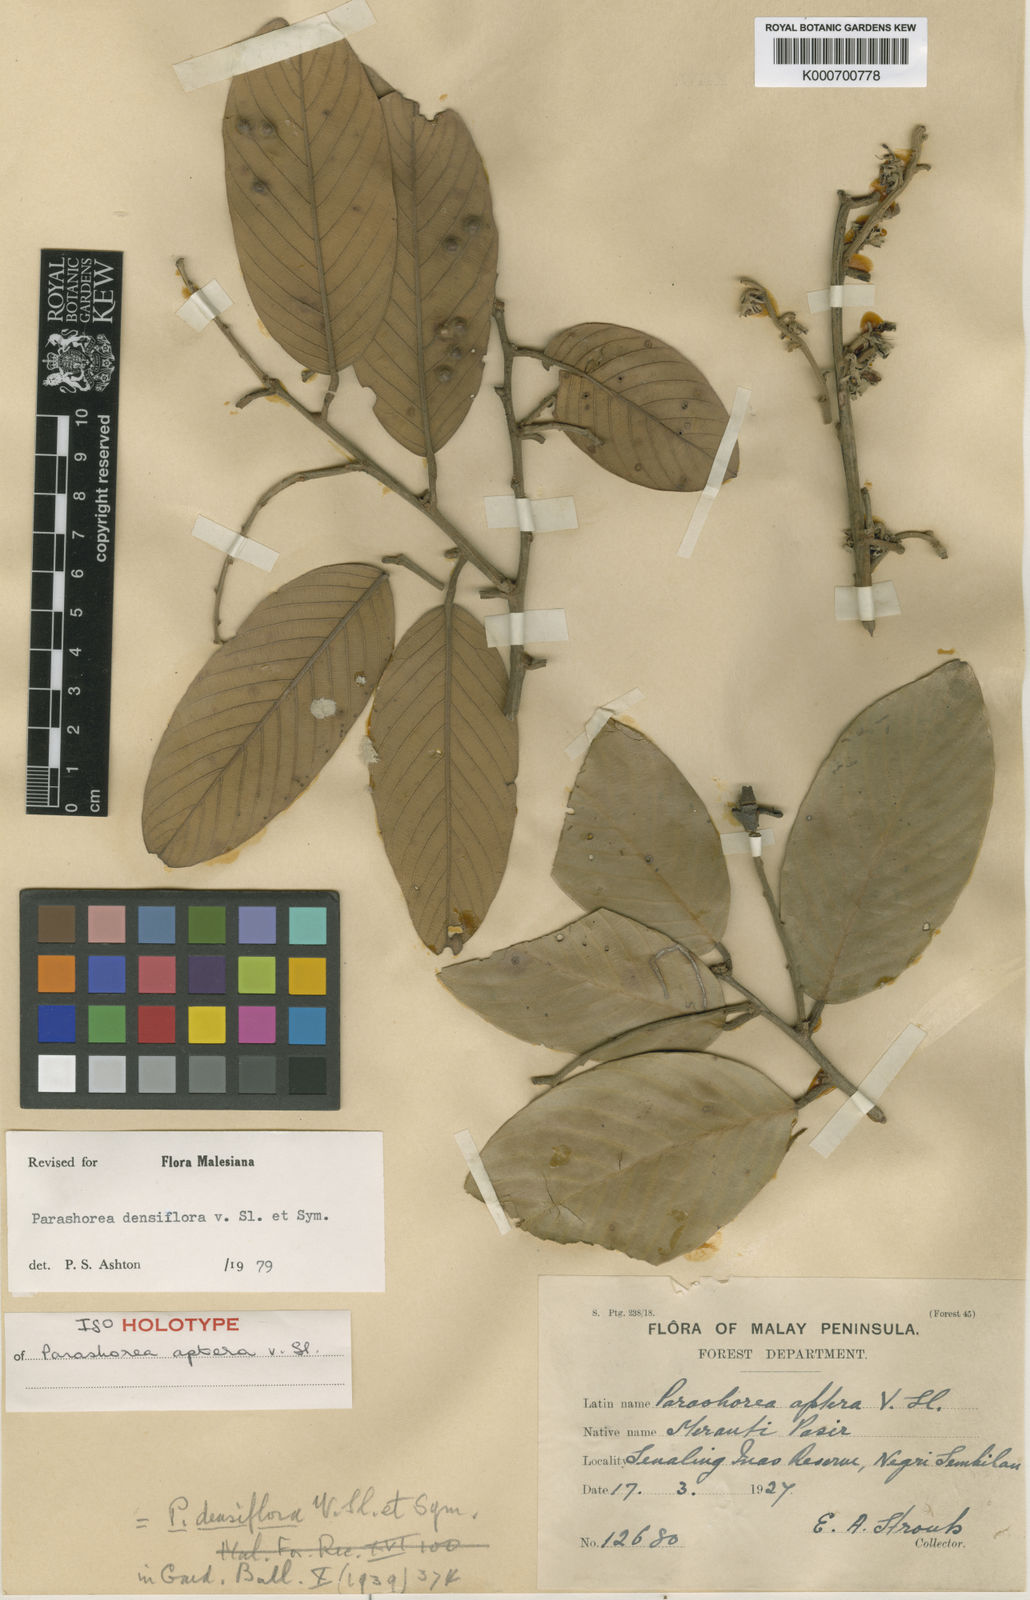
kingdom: Plantae
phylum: Tracheophyta
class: Magnoliopsida
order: Malvales
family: Dipterocarpaceae
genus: Parashorea
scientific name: Parashorea densiflora
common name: White seraya
